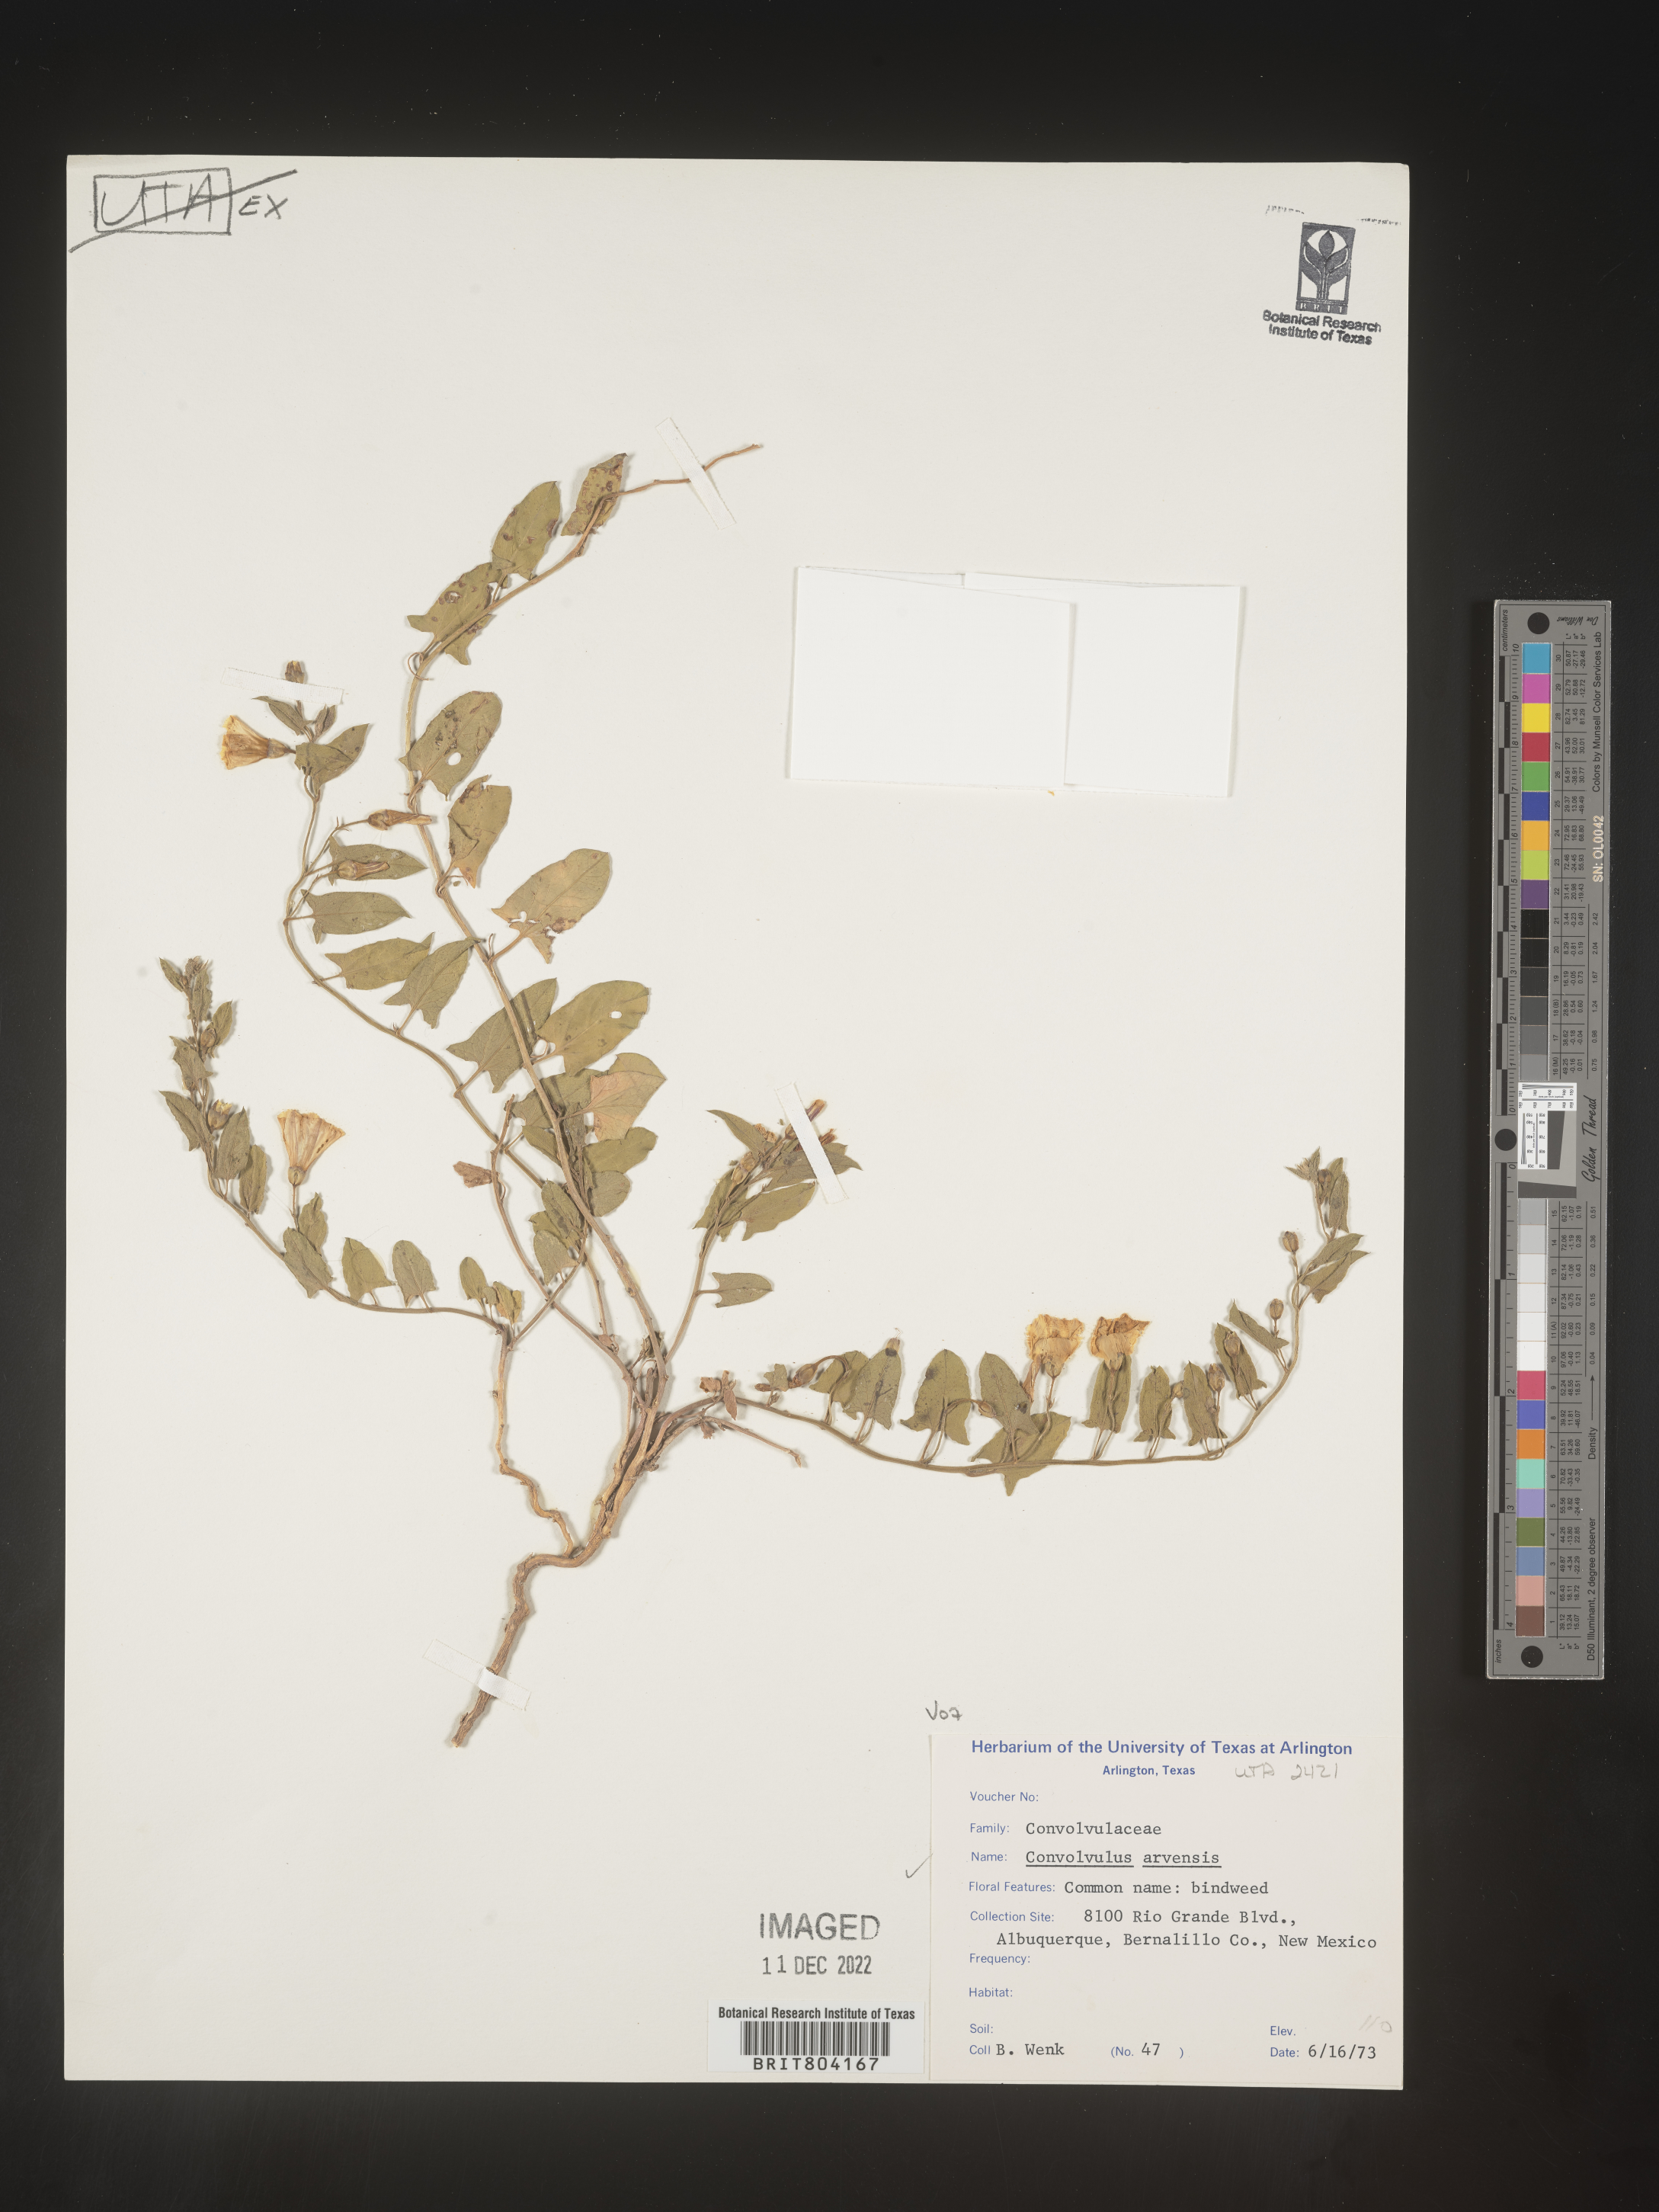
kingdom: Plantae
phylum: Tracheophyta
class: Magnoliopsida
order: Solanales
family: Convolvulaceae
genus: Convolvulus
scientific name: Convolvulus arvensis
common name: Field bindweed
